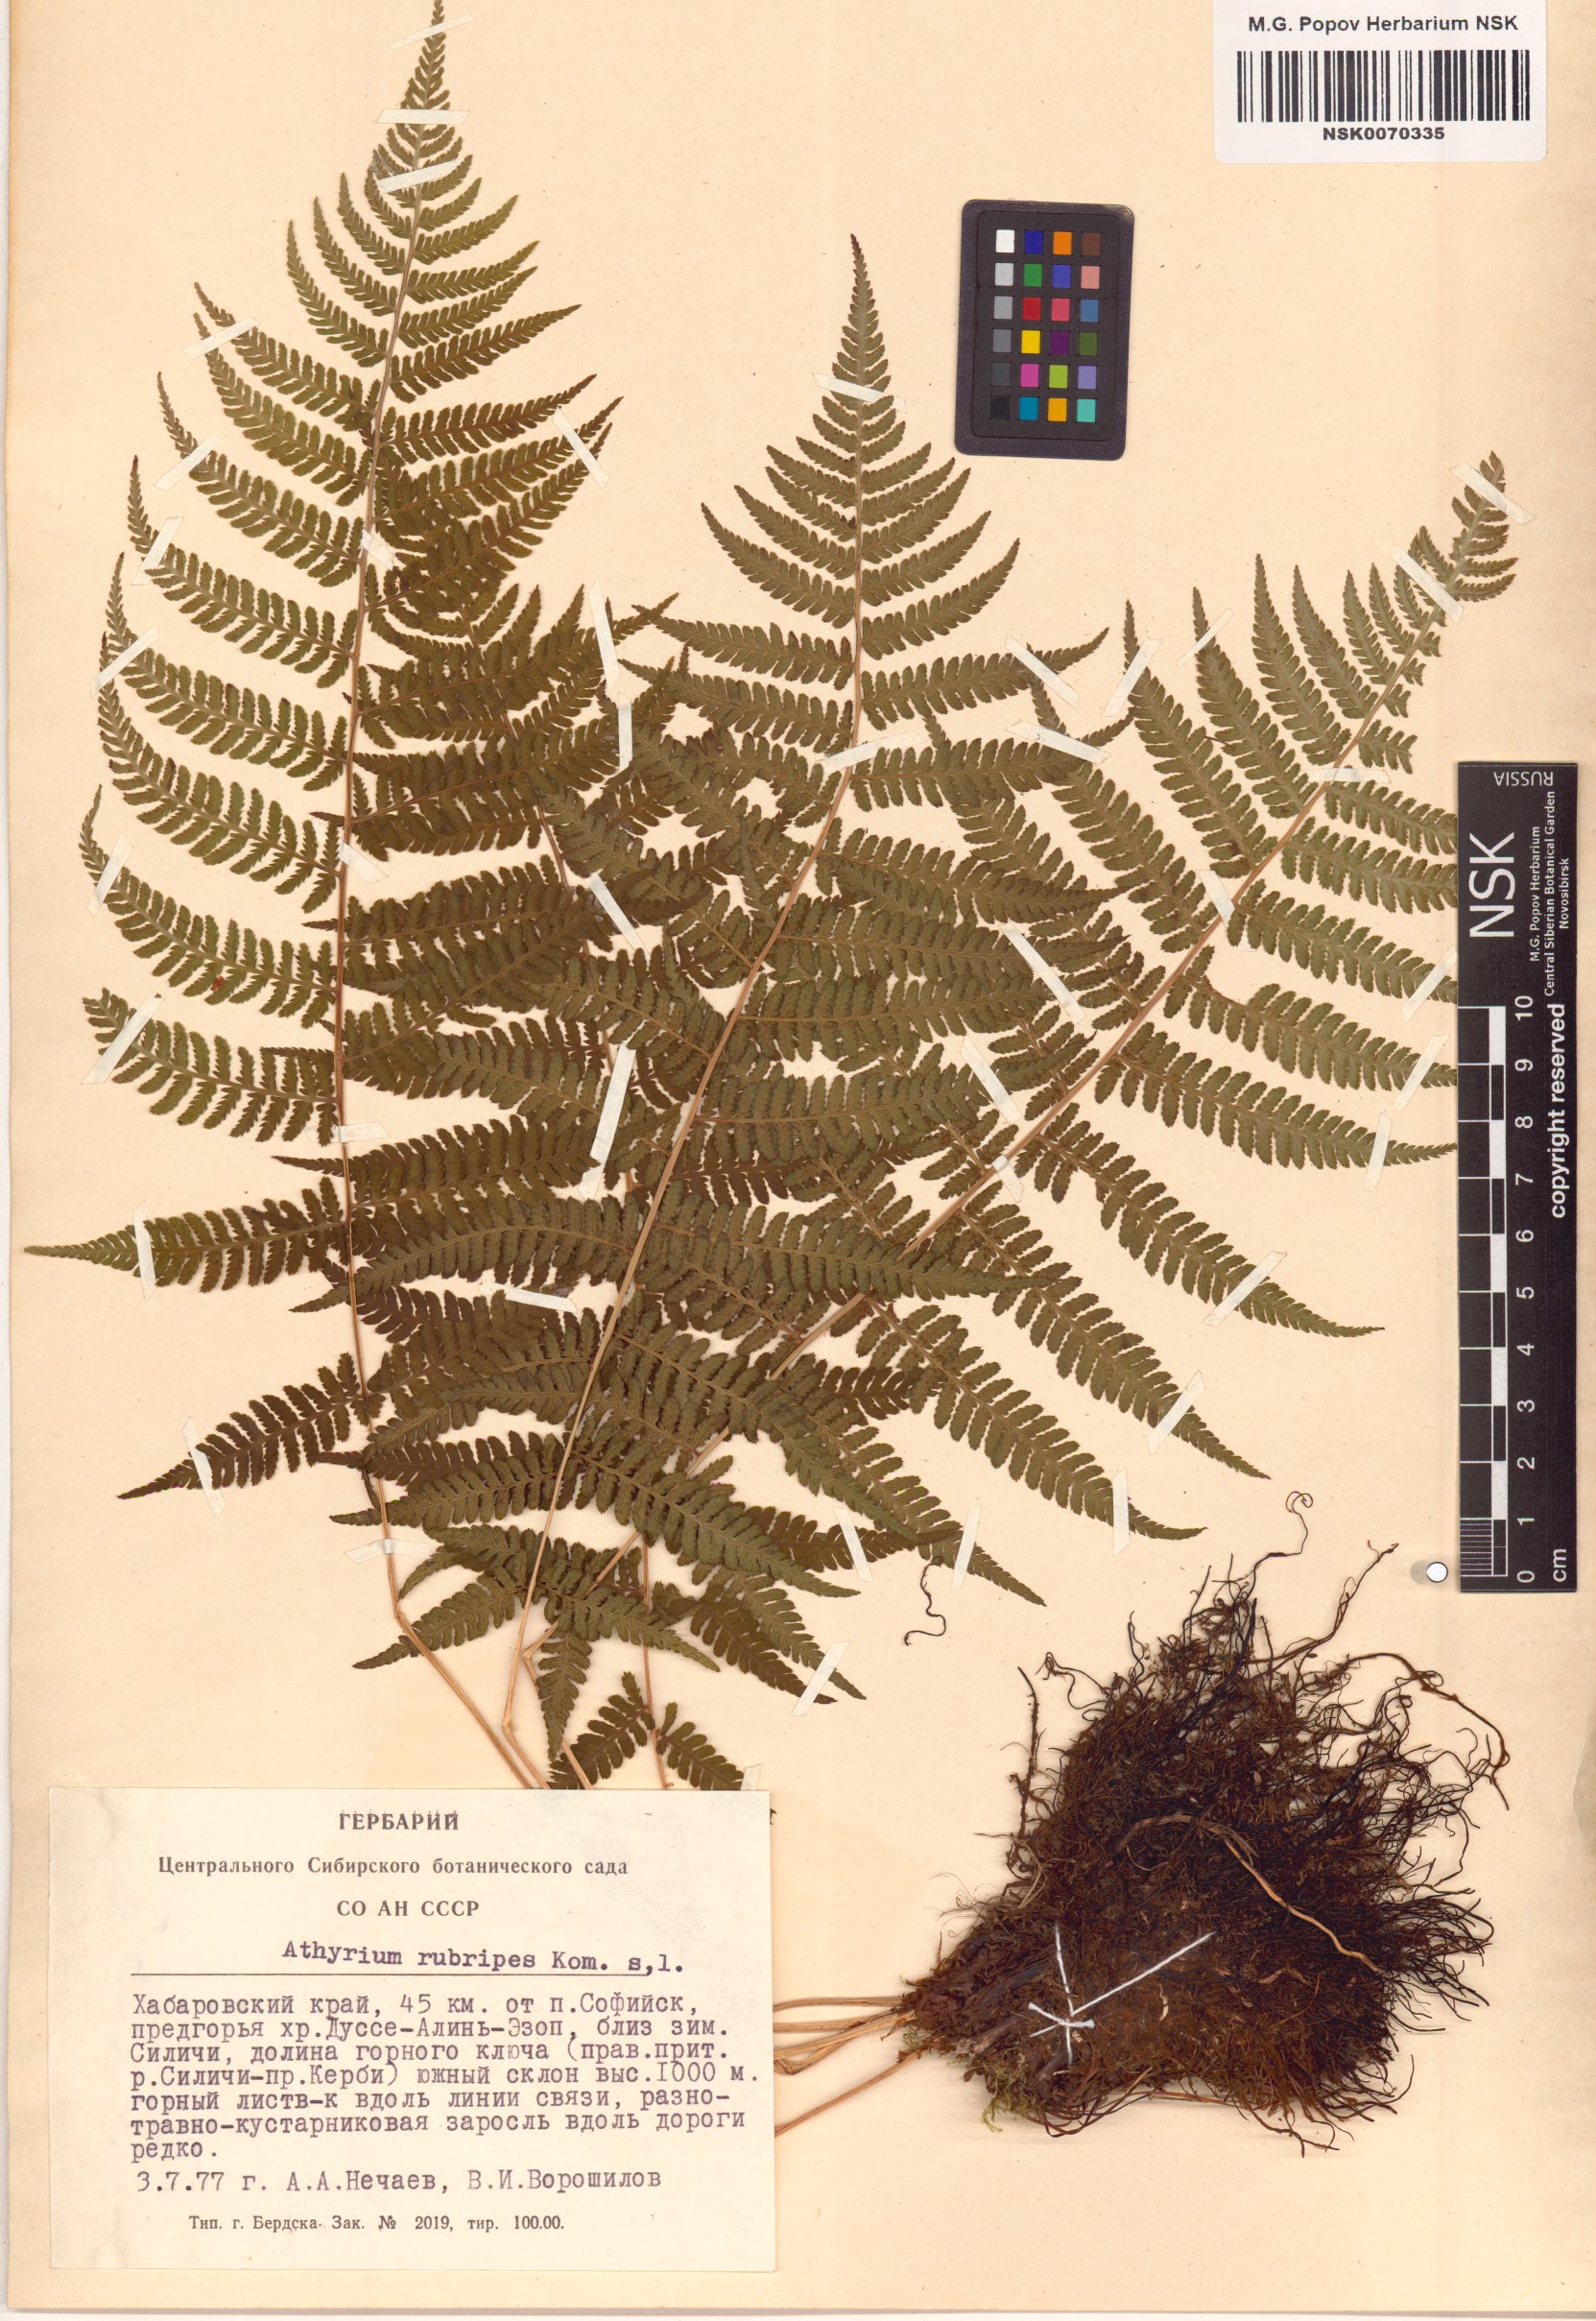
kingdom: Plantae
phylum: Tracheophyta
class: Polypodiopsida
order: Polypodiales
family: Athyriaceae
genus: Athyrium
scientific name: Athyrium rubripes
